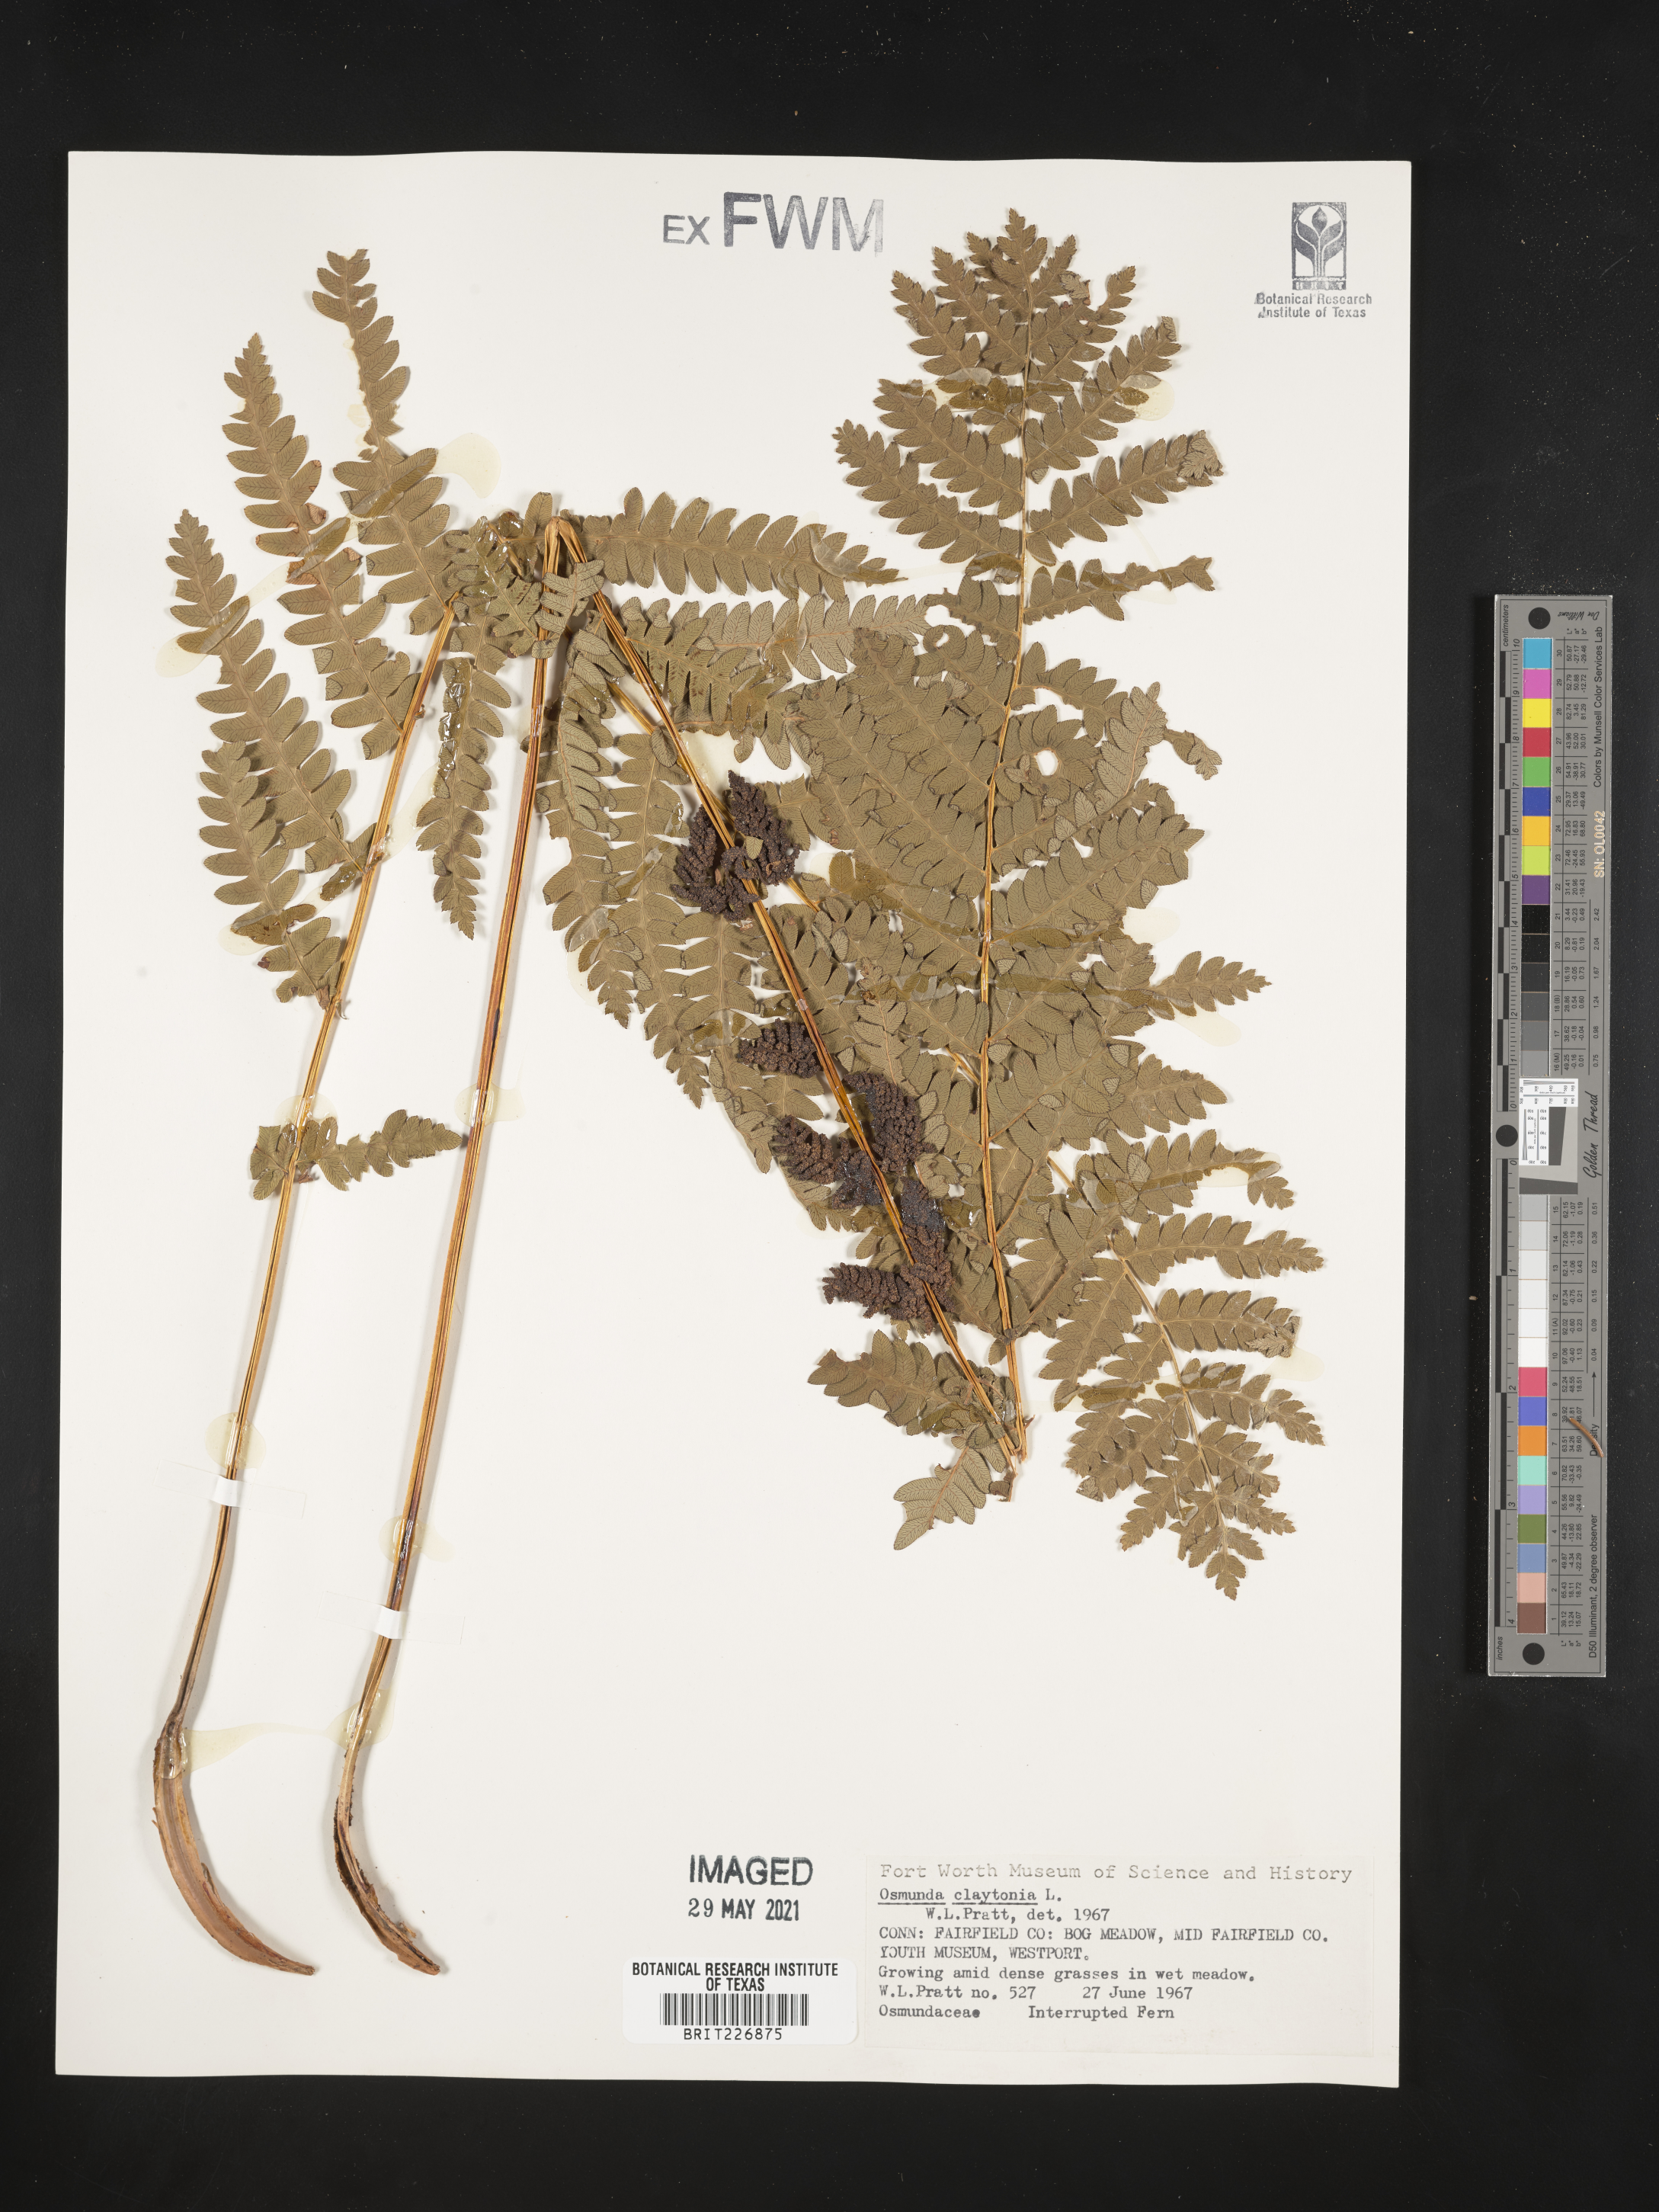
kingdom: Plantae
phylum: Tracheophyta
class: Polypodiopsida
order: Osmundales
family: Osmundaceae
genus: Claytosmunda
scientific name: Claytosmunda claytoniana
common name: Clayton's fern
